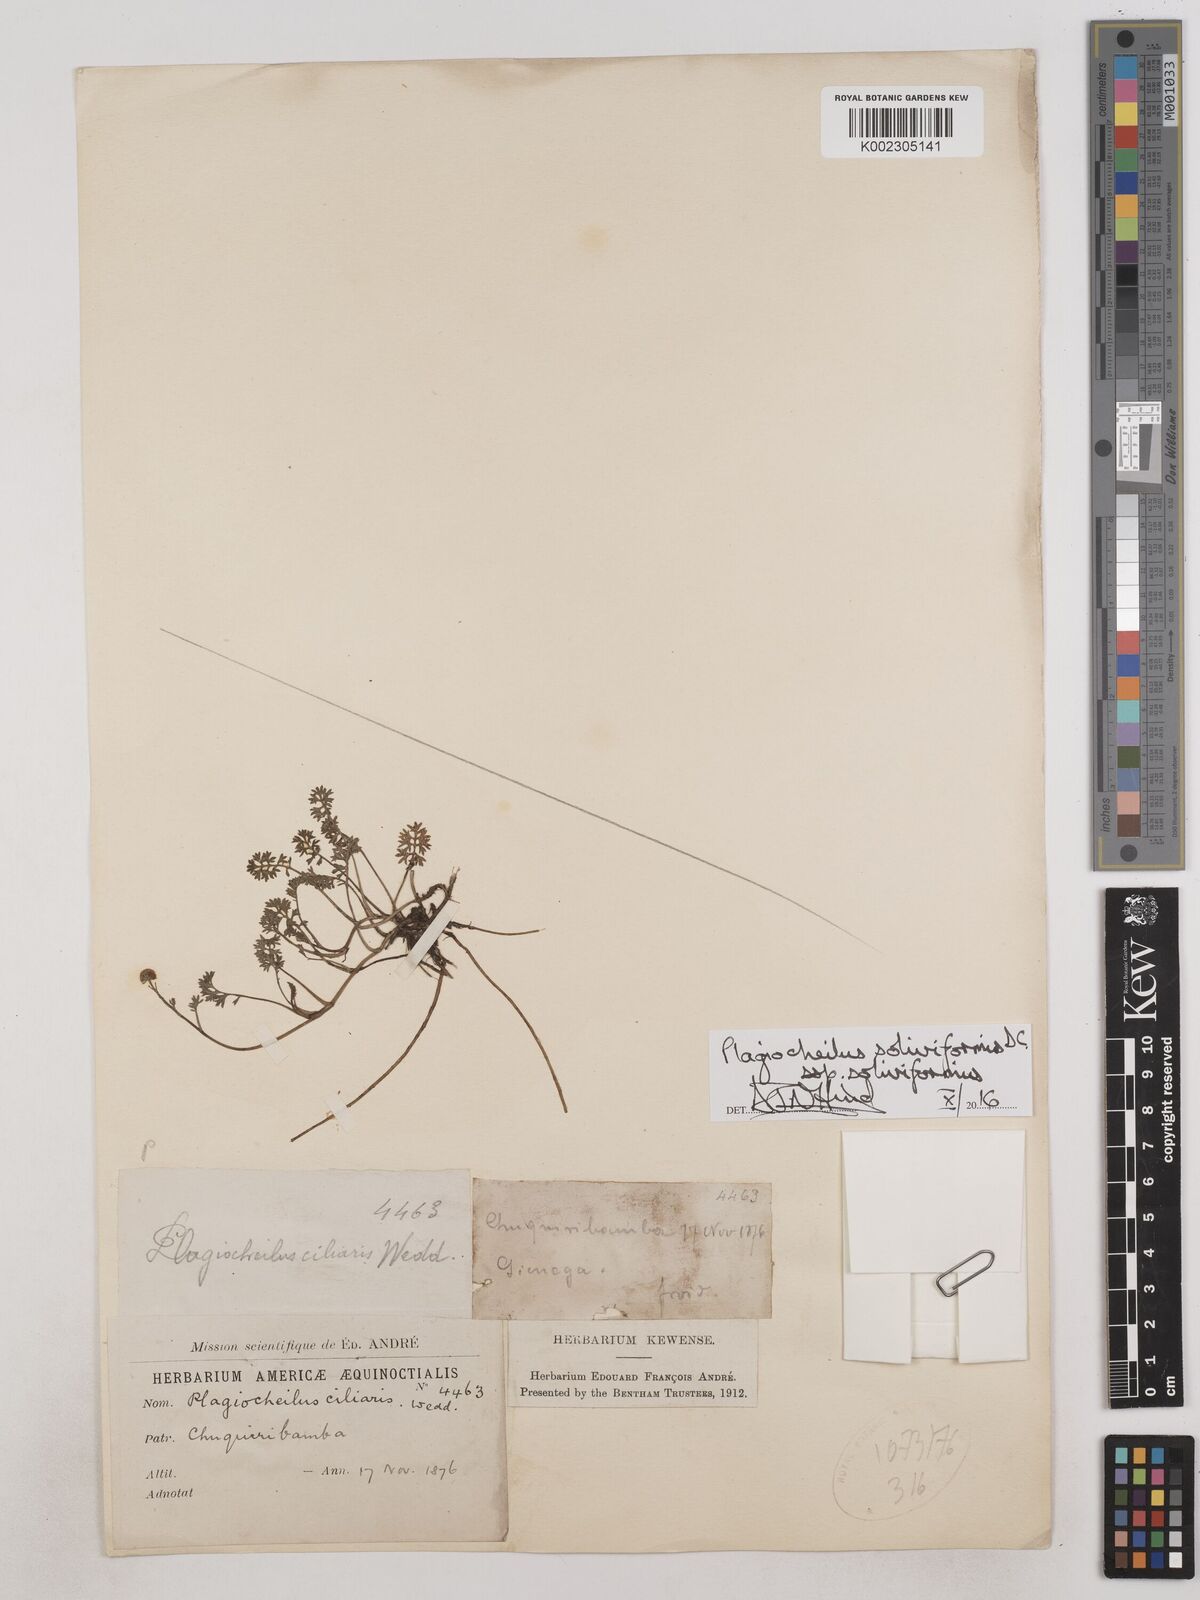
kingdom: Plantae
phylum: Tracheophyta
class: Magnoliopsida
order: Asterales
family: Asteraceae
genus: Plagiocheilus
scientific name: Plagiocheilus soliviformis
